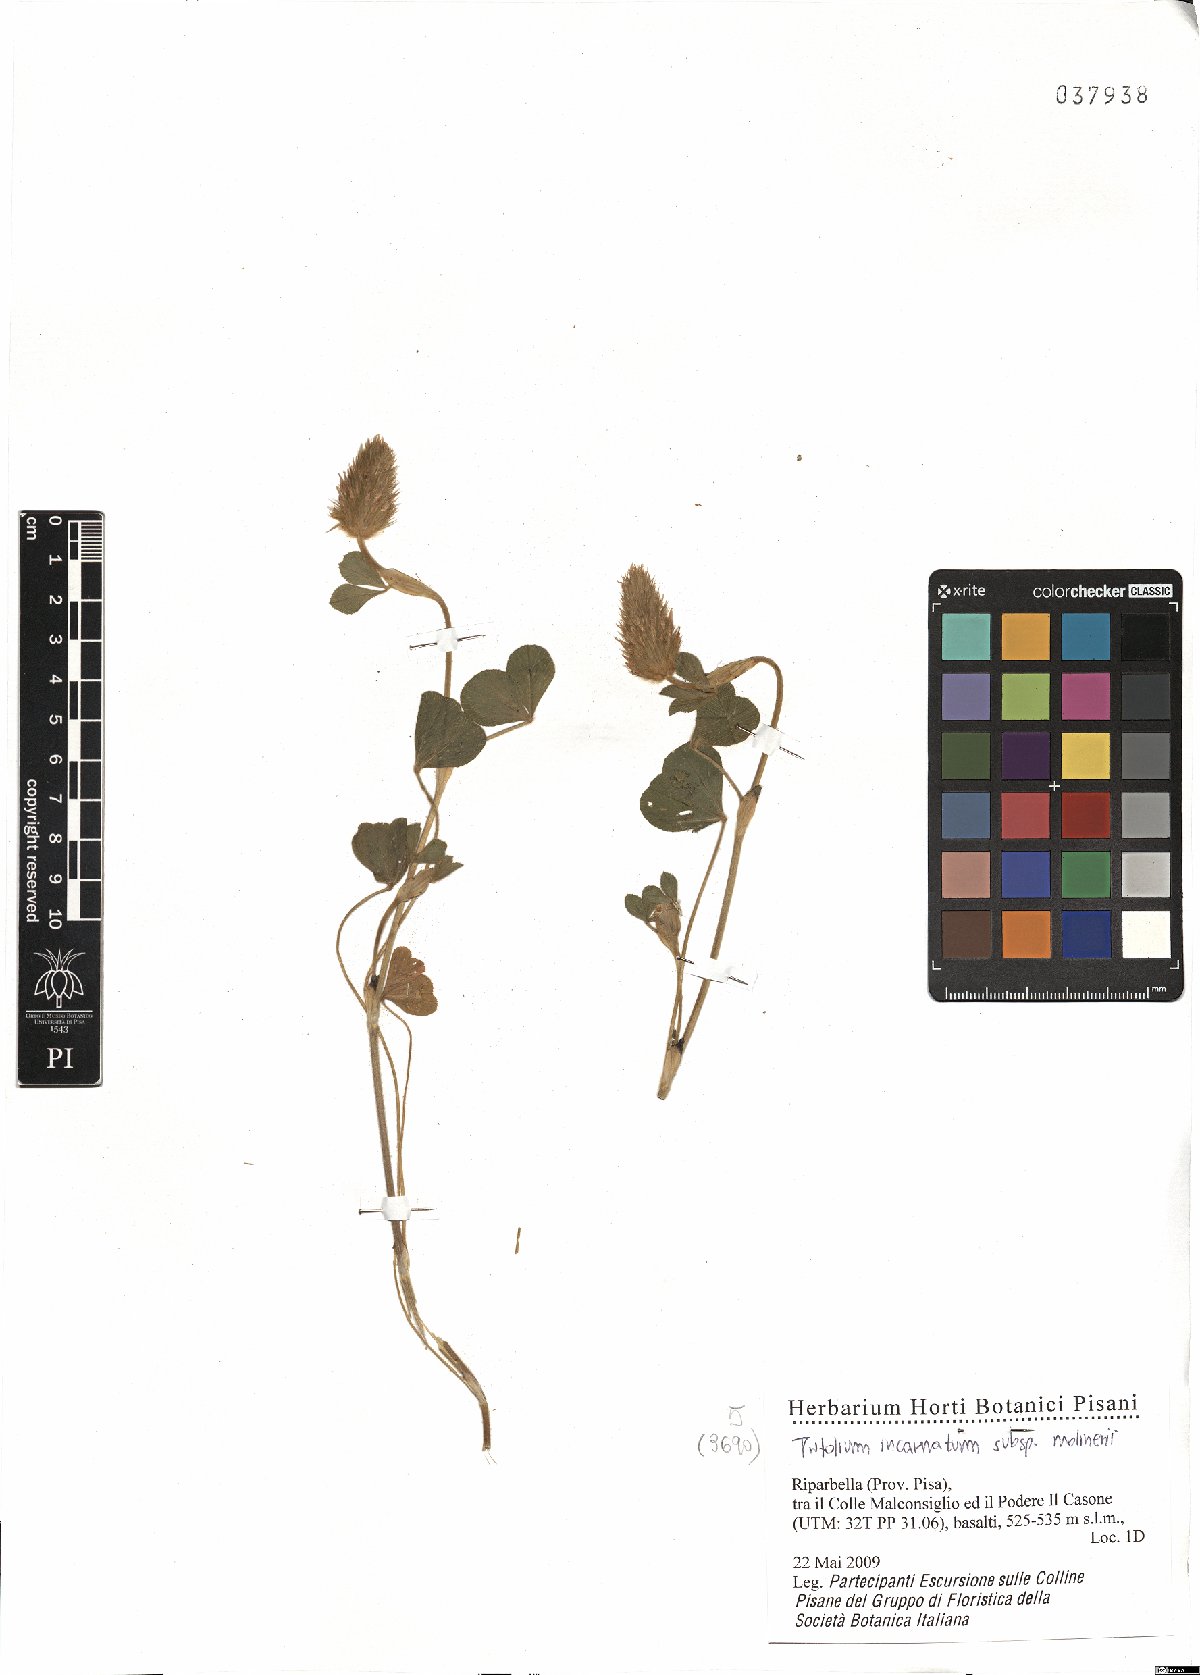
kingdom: Plantae
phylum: Tracheophyta
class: Magnoliopsida
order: Fabales
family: Fabaceae
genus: Trifolium
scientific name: Trifolium incarnatum
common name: Crimson clover
